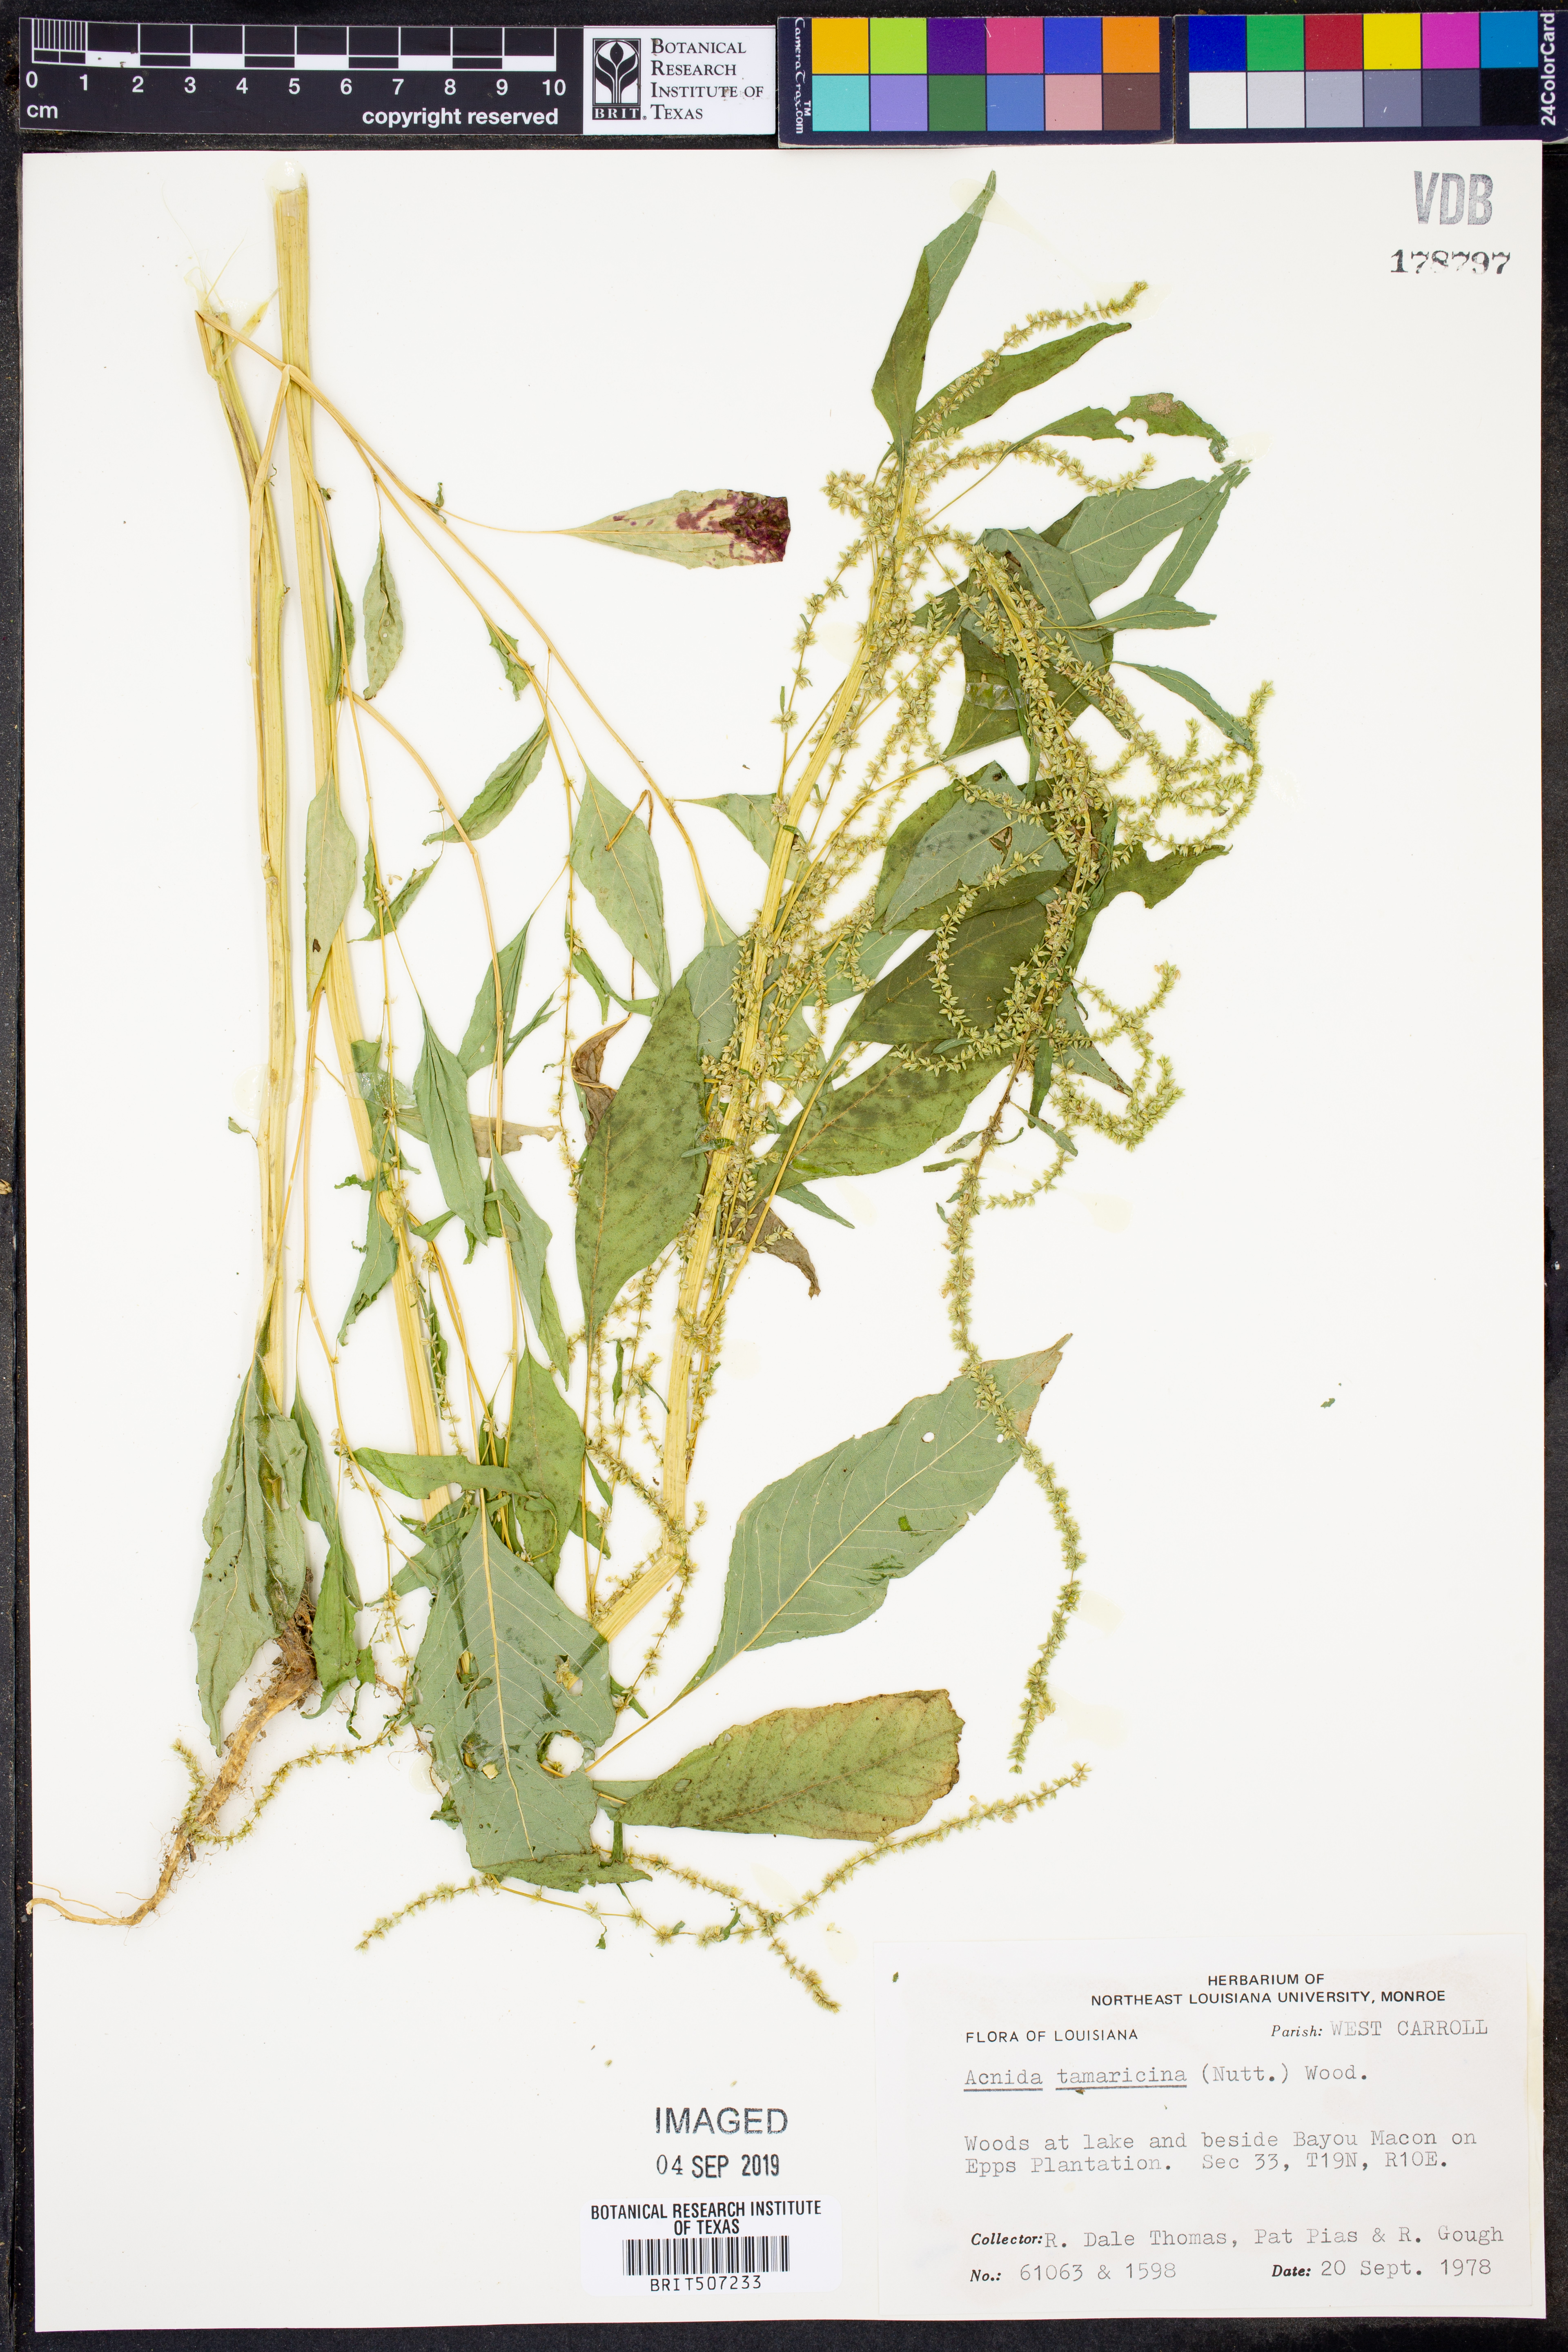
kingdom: Plantae
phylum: Tracheophyta
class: Magnoliopsida
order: Caryophyllales
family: Amaranthaceae
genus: Amaranthus
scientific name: Amaranthus tamariscinus
